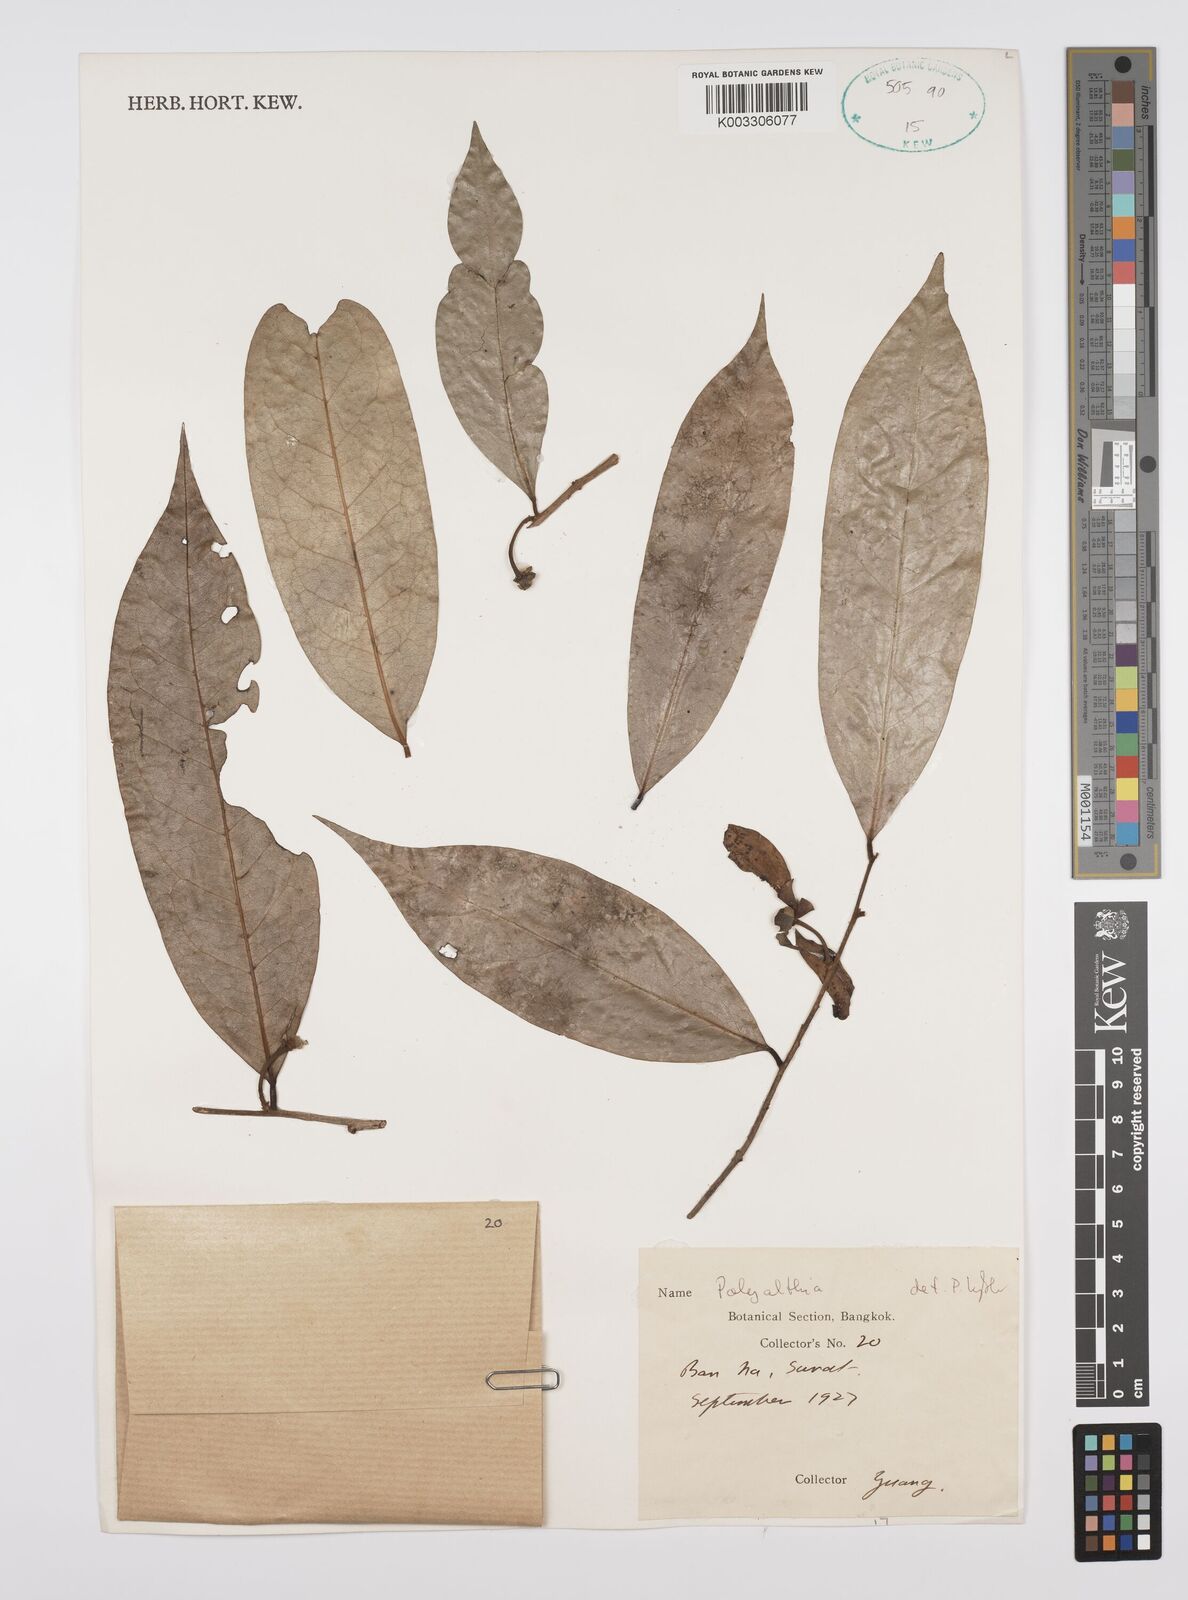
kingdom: Plantae
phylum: Tracheophyta
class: Magnoliopsida
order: Magnoliales
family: Annonaceae
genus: Huberantha
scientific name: Huberantha
